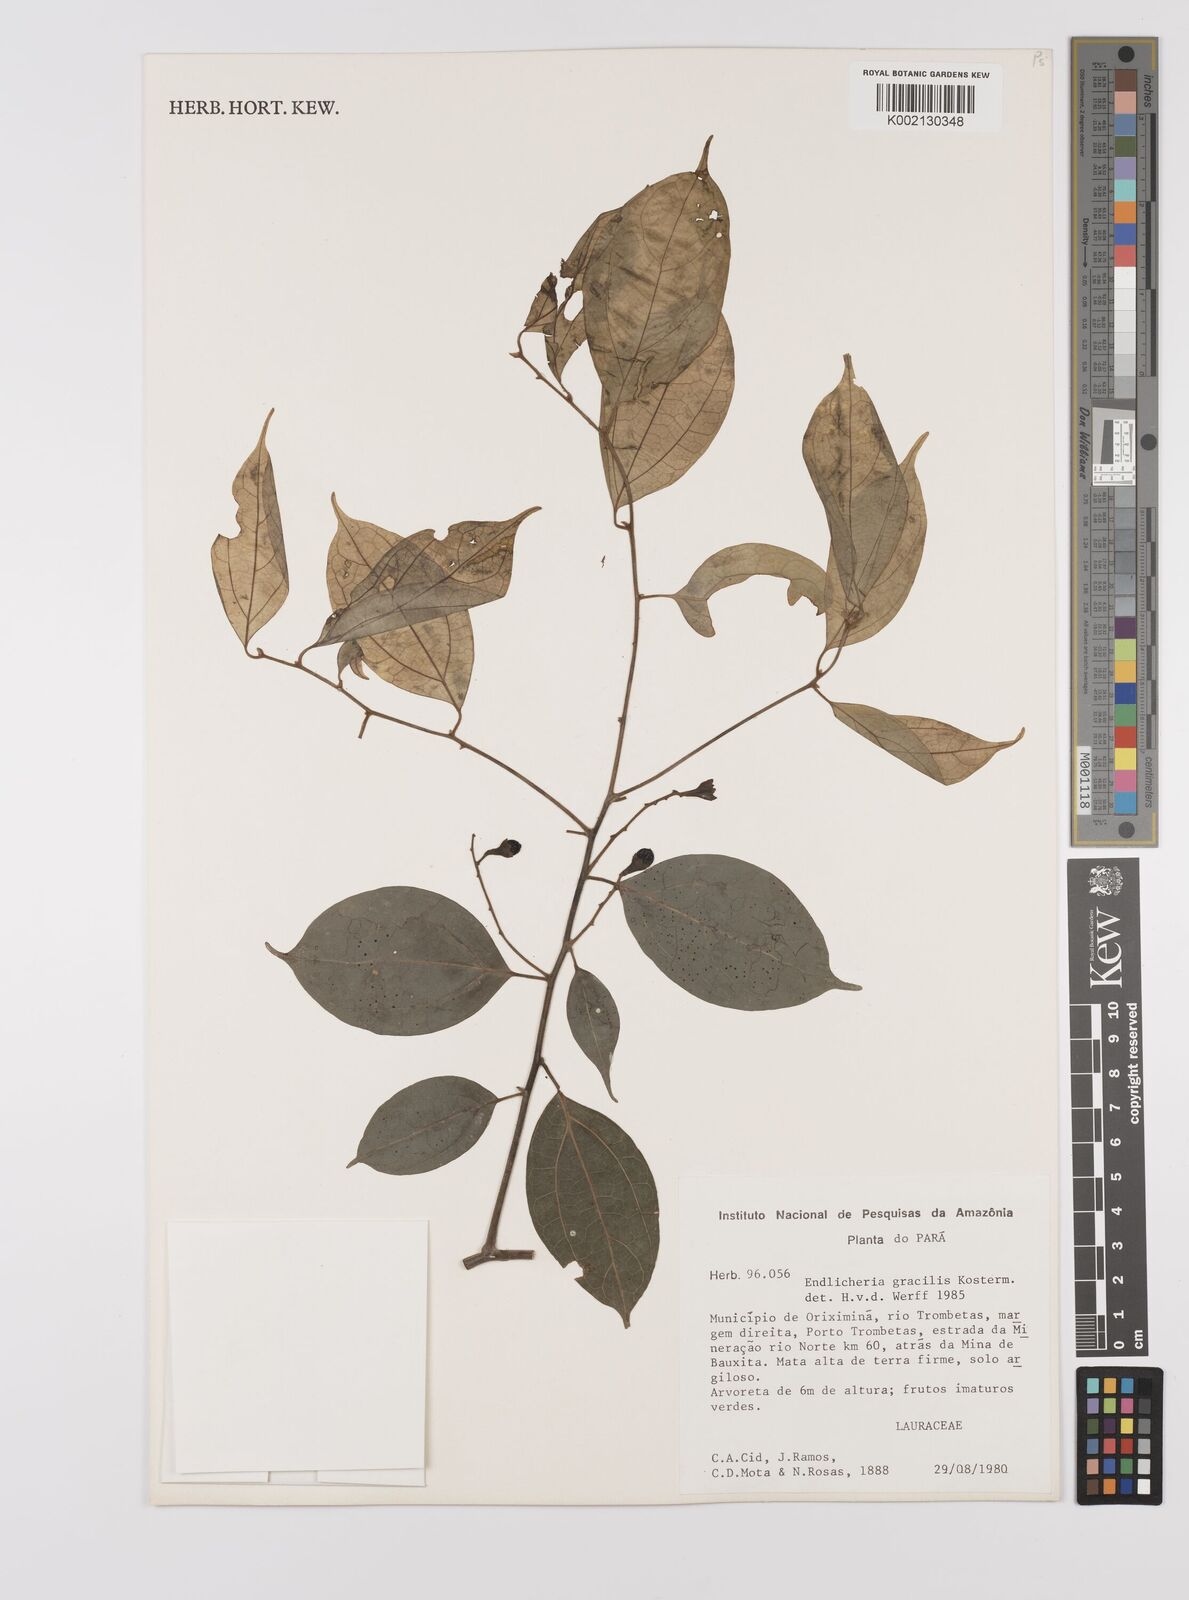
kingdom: Plantae
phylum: Tracheophyta
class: Magnoliopsida
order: Laurales
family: Lauraceae
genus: Endlicheria
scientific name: Endlicheria gracilis
